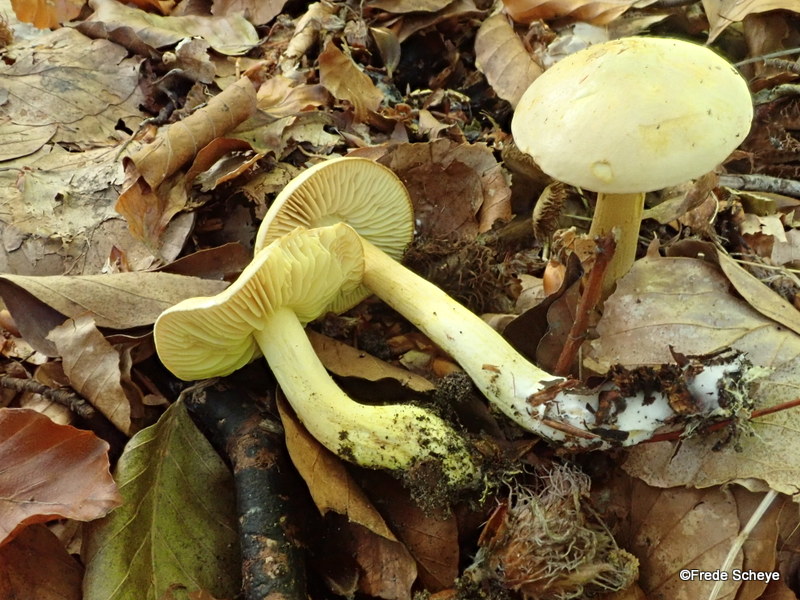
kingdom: Fungi
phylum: Basidiomycota
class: Agaricomycetes
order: Agaricales
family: Tricholomataceae
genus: Tricholoma
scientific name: Tricholoma sulphureum
